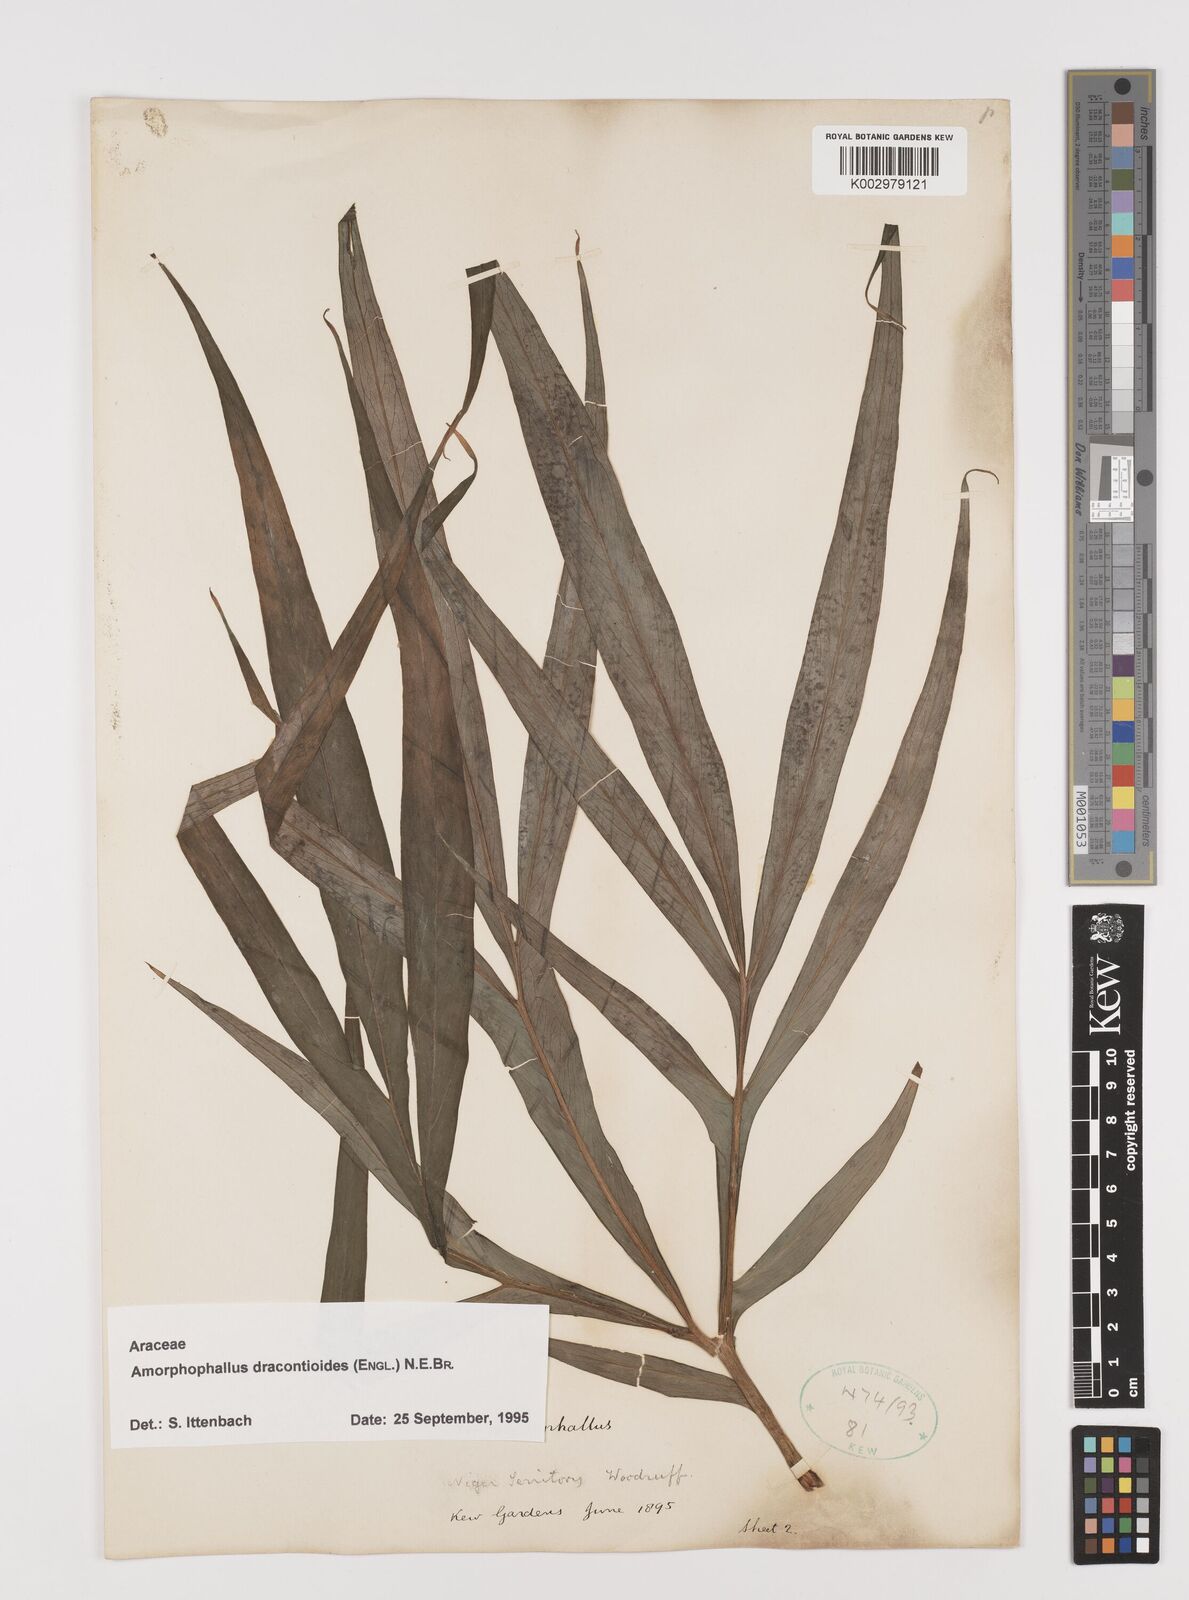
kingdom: Plantae
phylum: Tracheophyta
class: Liliopsida
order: Alismatales
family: Araceae
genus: Amorphophallus
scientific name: Amorphophallus dracontioides
